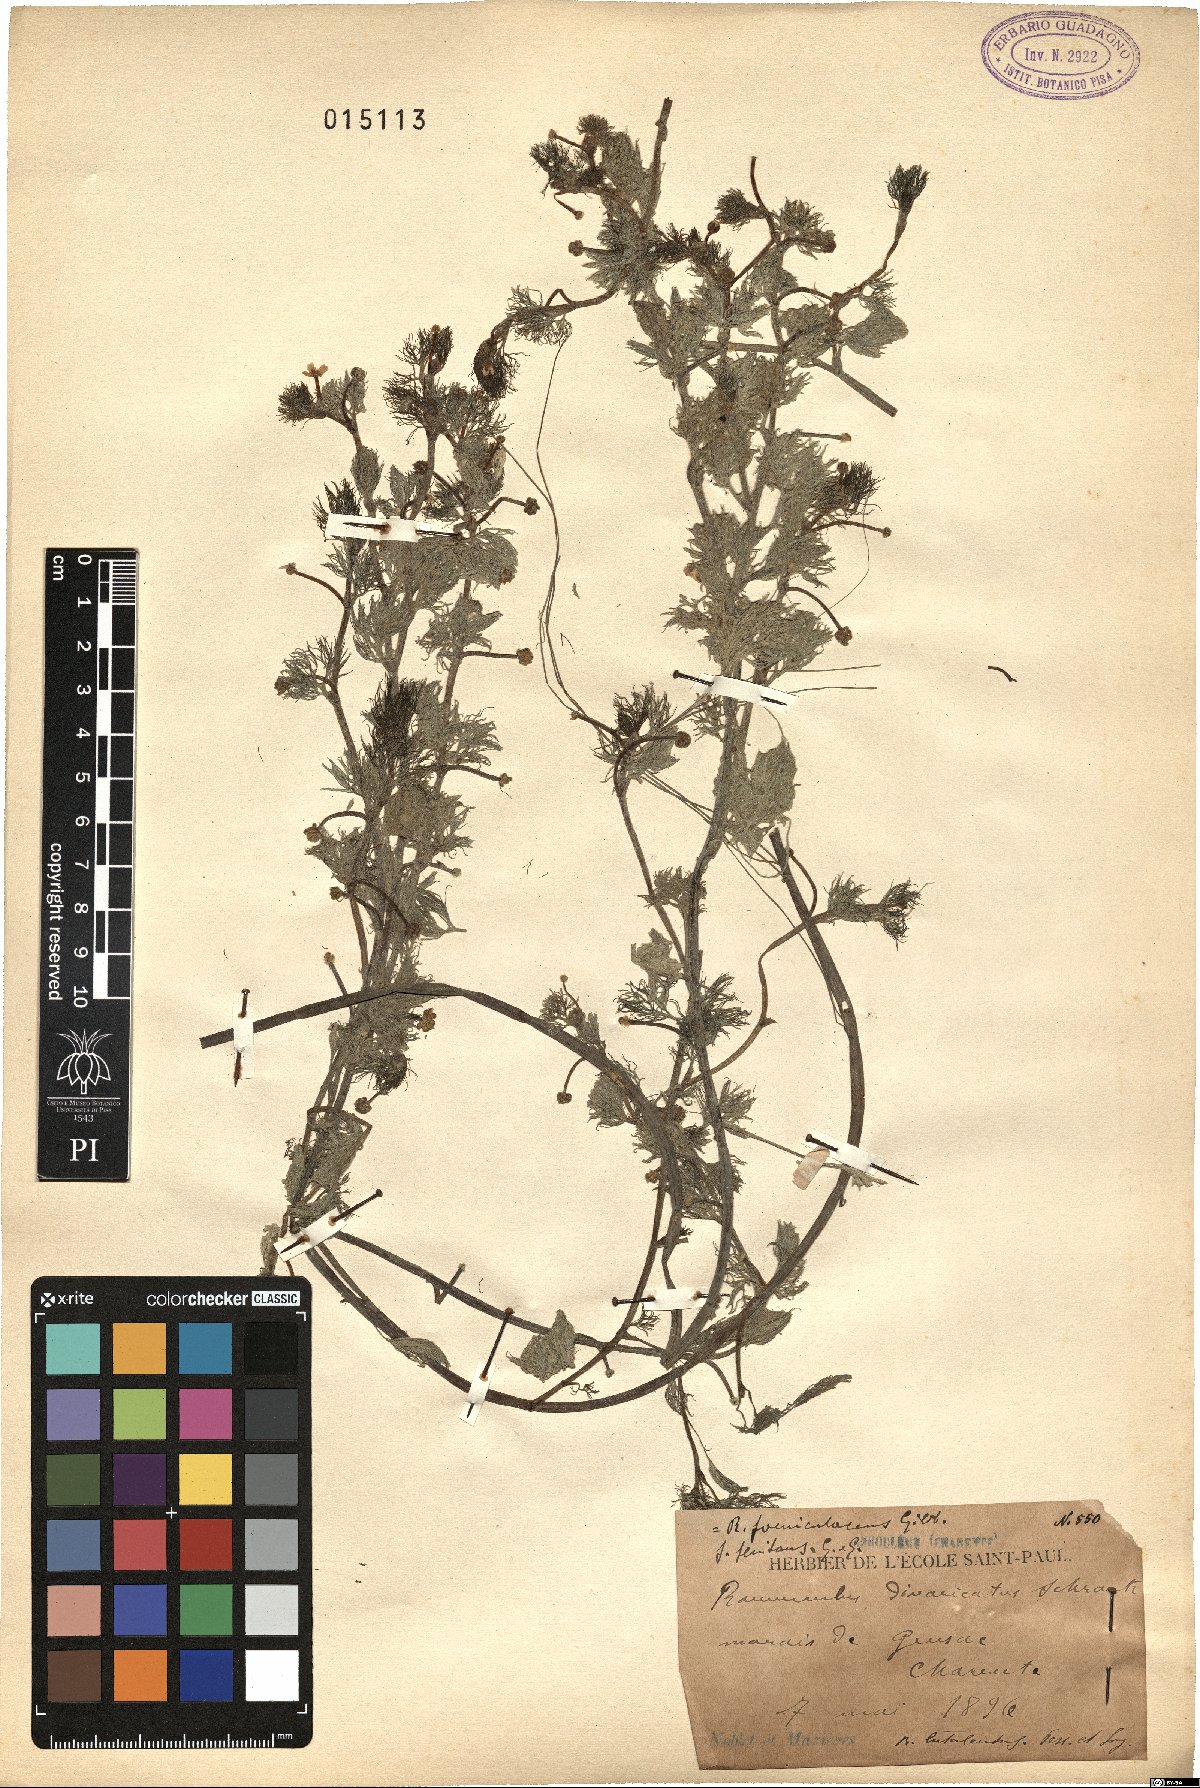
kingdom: Plantae
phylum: Tracheophyta
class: Magnoliopsida
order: Ranunculales
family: Ranunculaceae
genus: Ranunculus
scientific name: Ranunculus trichophyllus
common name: Thread-leaved water-crowfoot
